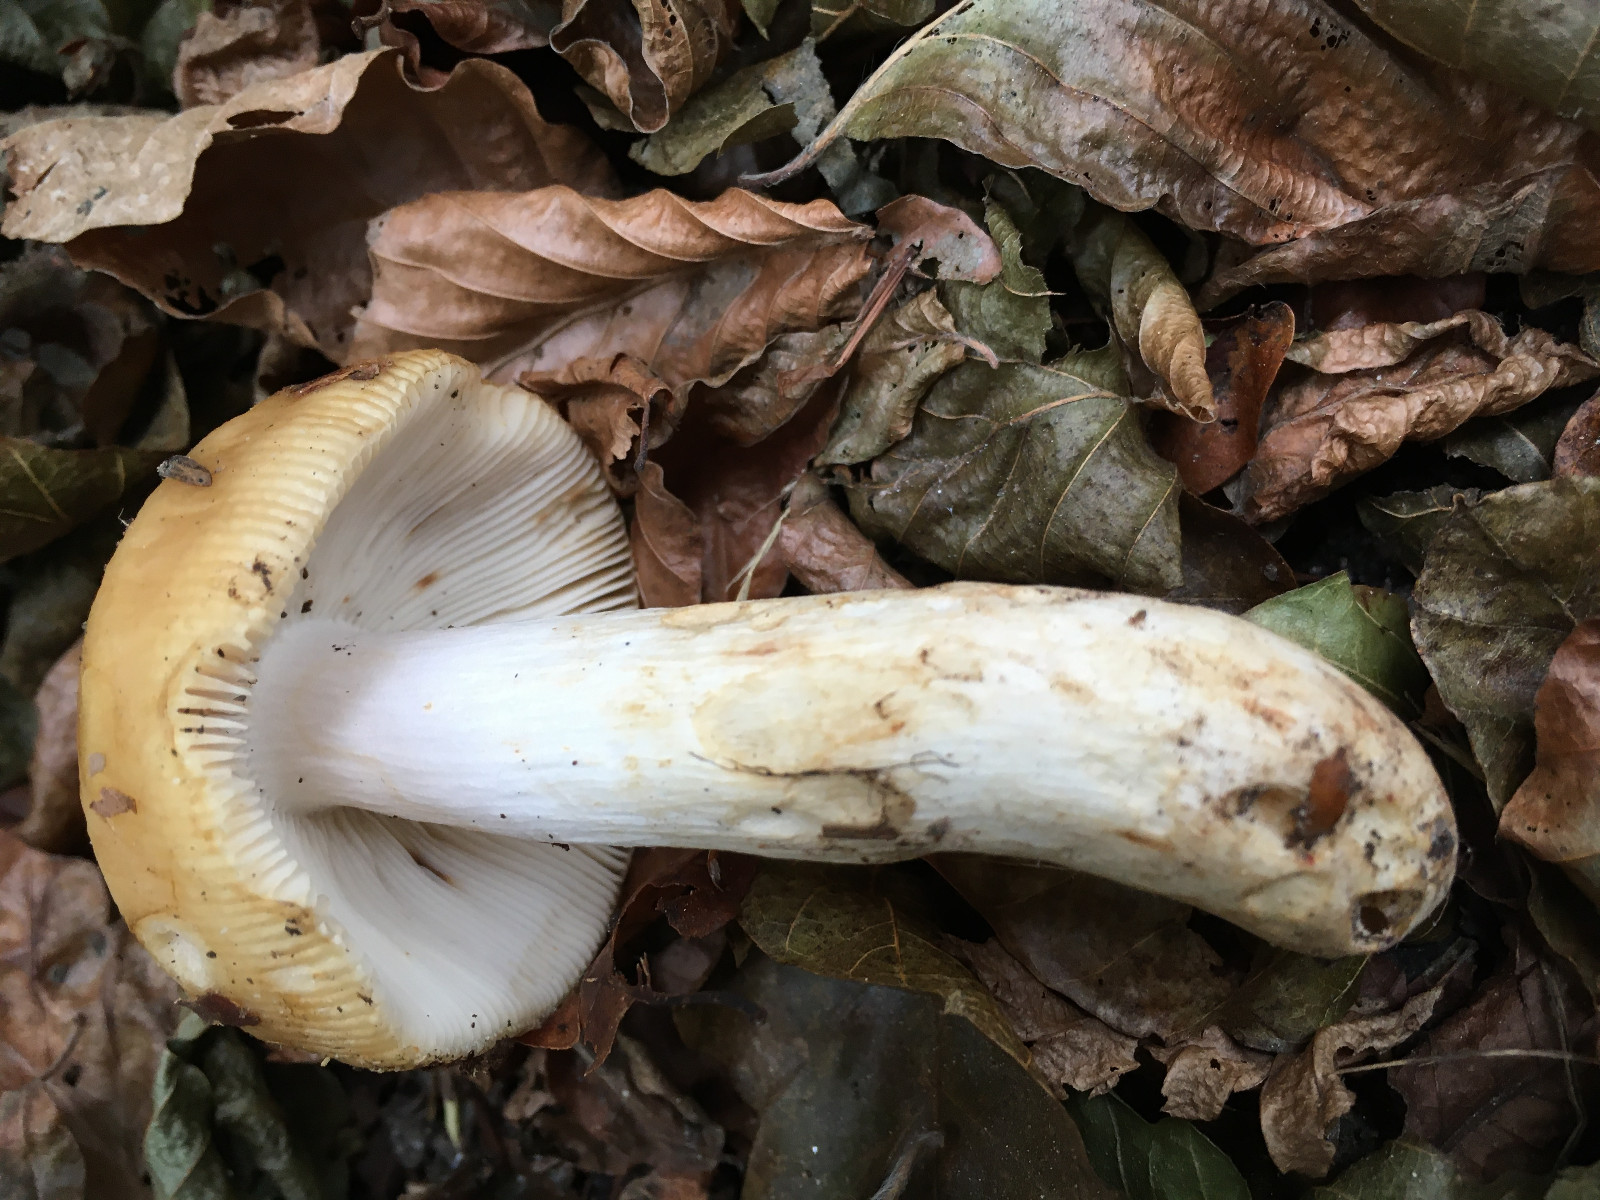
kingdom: Fungi
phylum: Basidiomycota
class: Agaricomycetes
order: Russulales
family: Russulaceae
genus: Russula
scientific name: Russula grata
